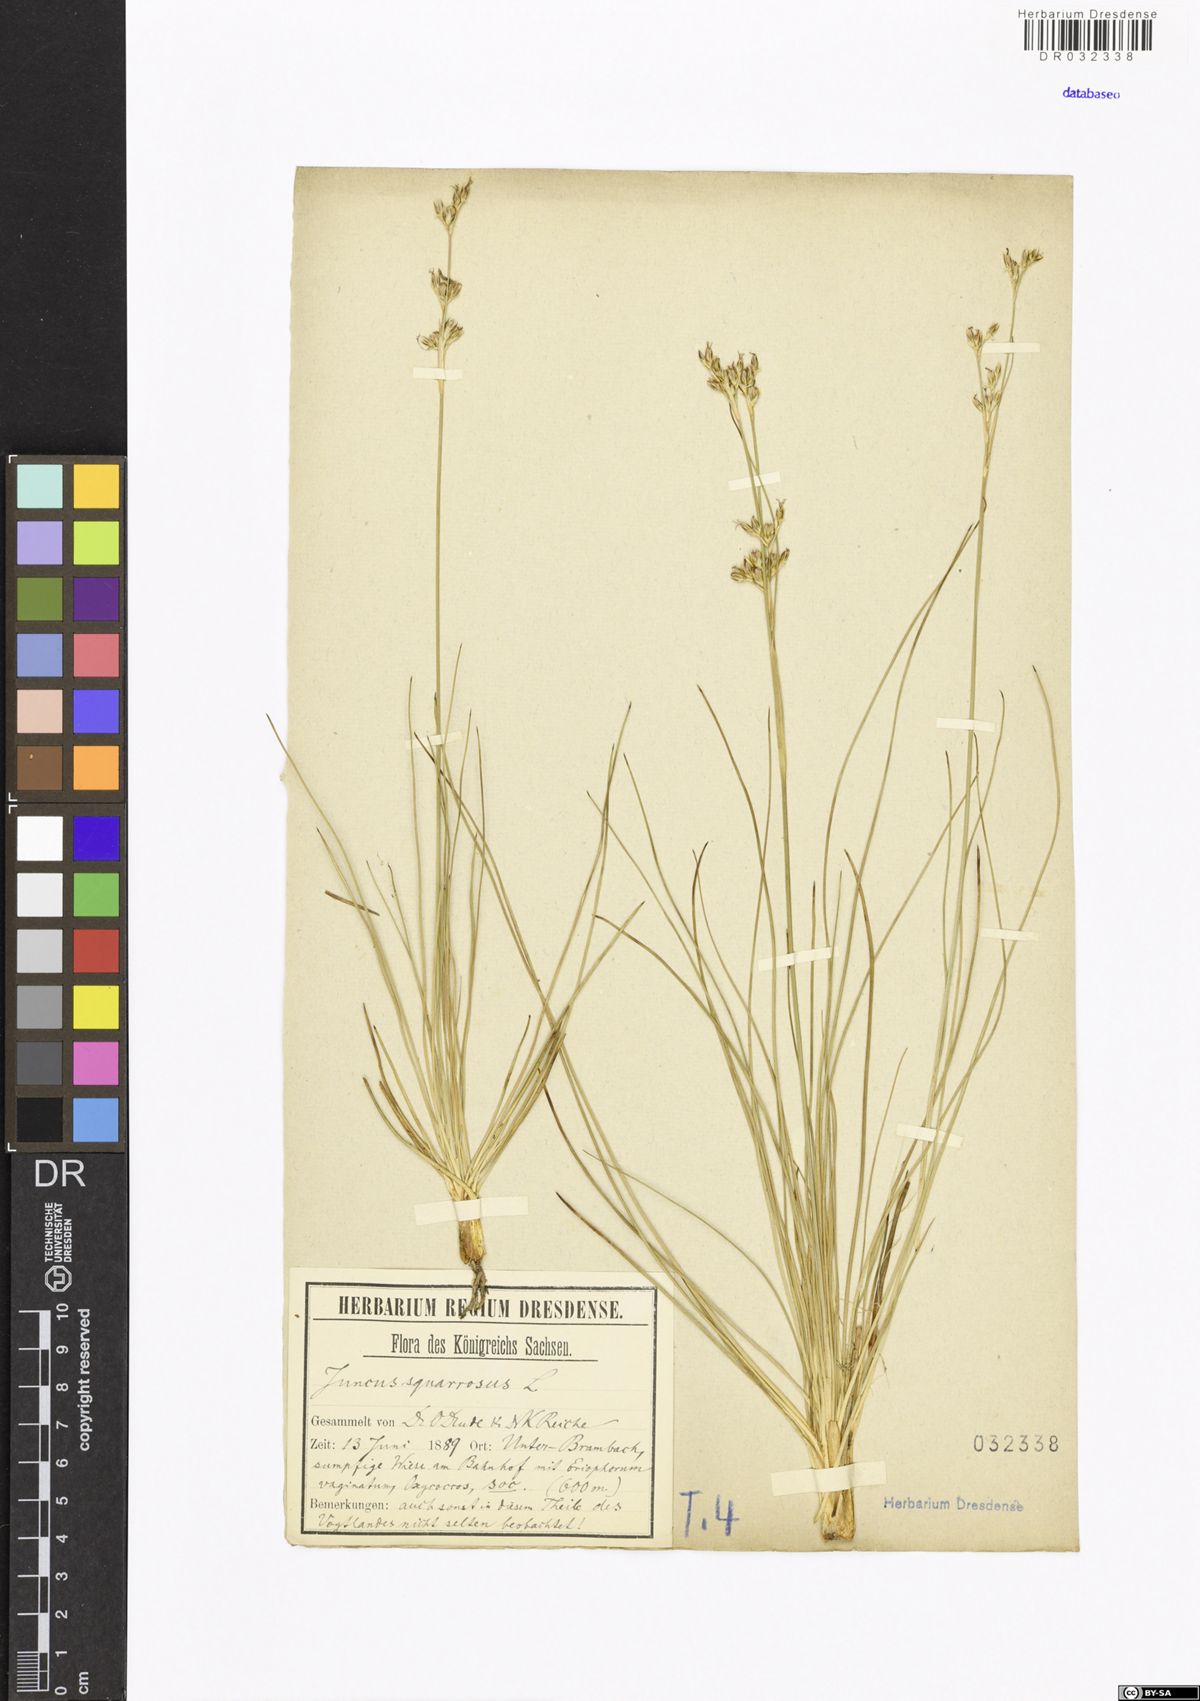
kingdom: Plantae
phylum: Tracheophyta
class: Liliopsida
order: Poales
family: Juncaceae
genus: Juncus
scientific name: Juncus squarrosus
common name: Heath rush
